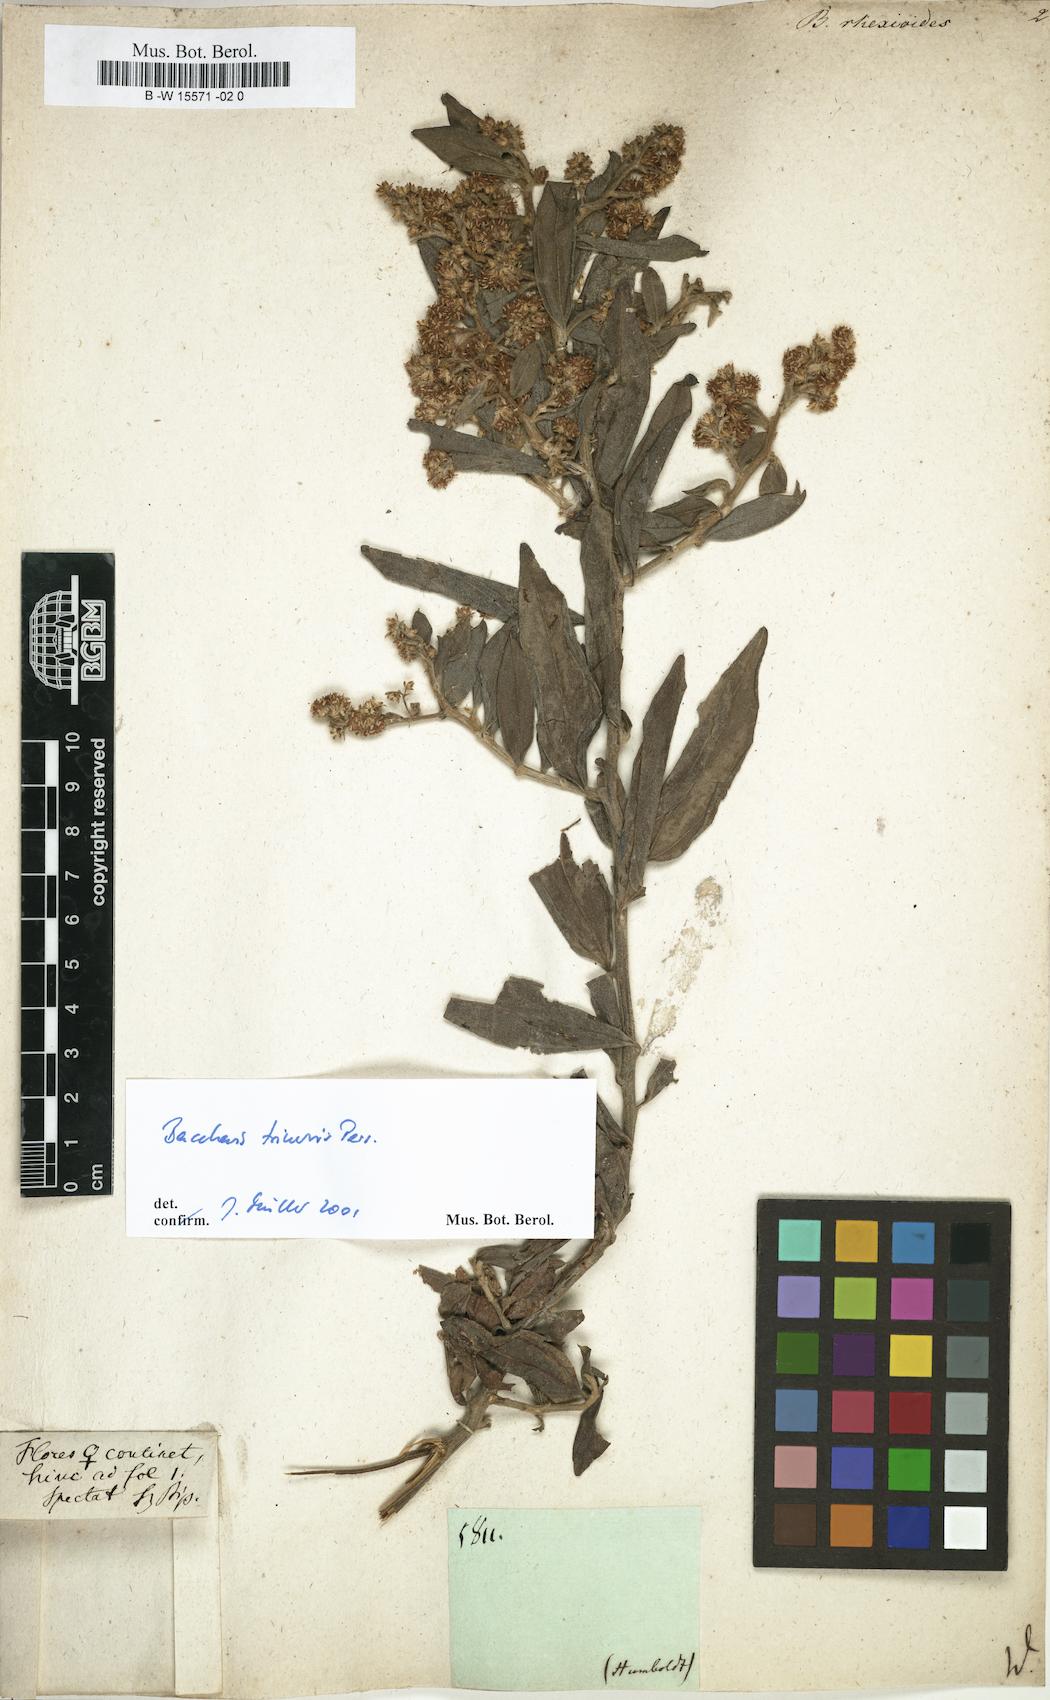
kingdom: Plantae
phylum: Tracheophyta
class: Magnoliopsida
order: Asterales
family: Asteraceae
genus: Baccharis
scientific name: Baccharis trinervis
